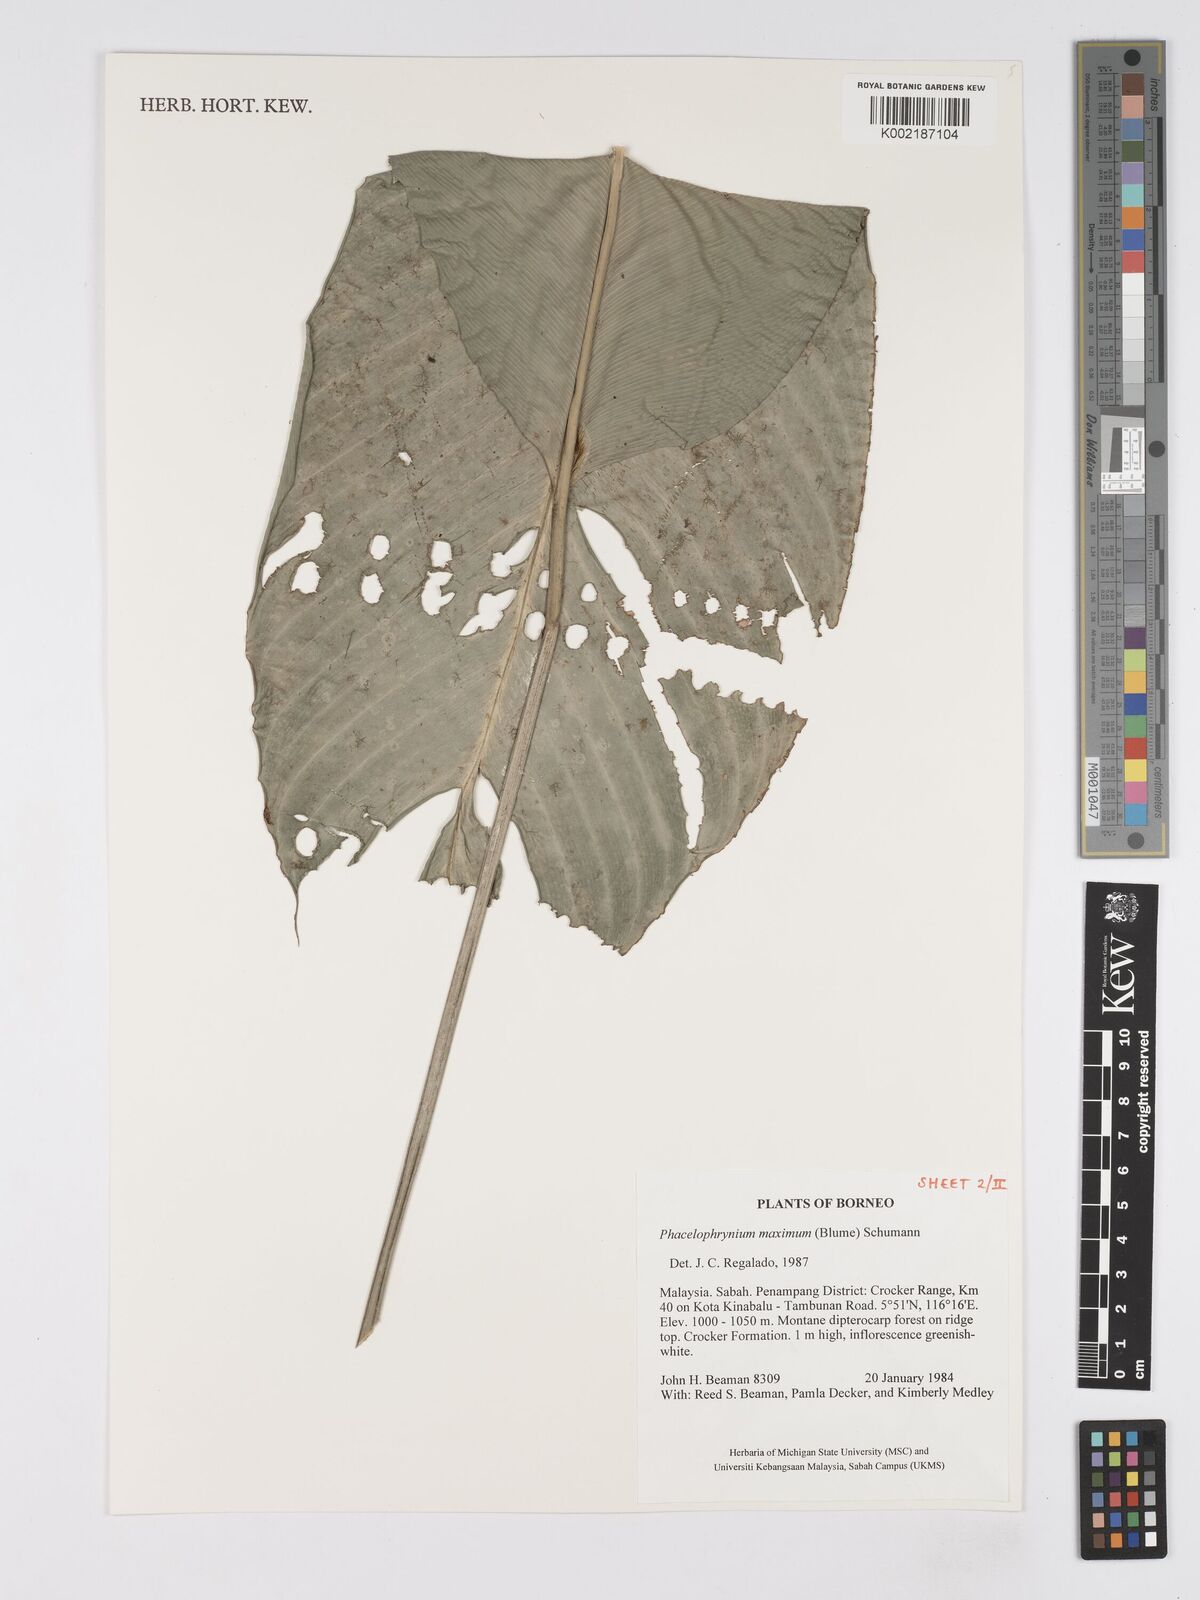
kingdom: Plantae
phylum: Tracheophyta
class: Liliopsida
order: Zingiberales
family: Marantaceae
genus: Phrynium
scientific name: Phrynium maximum
